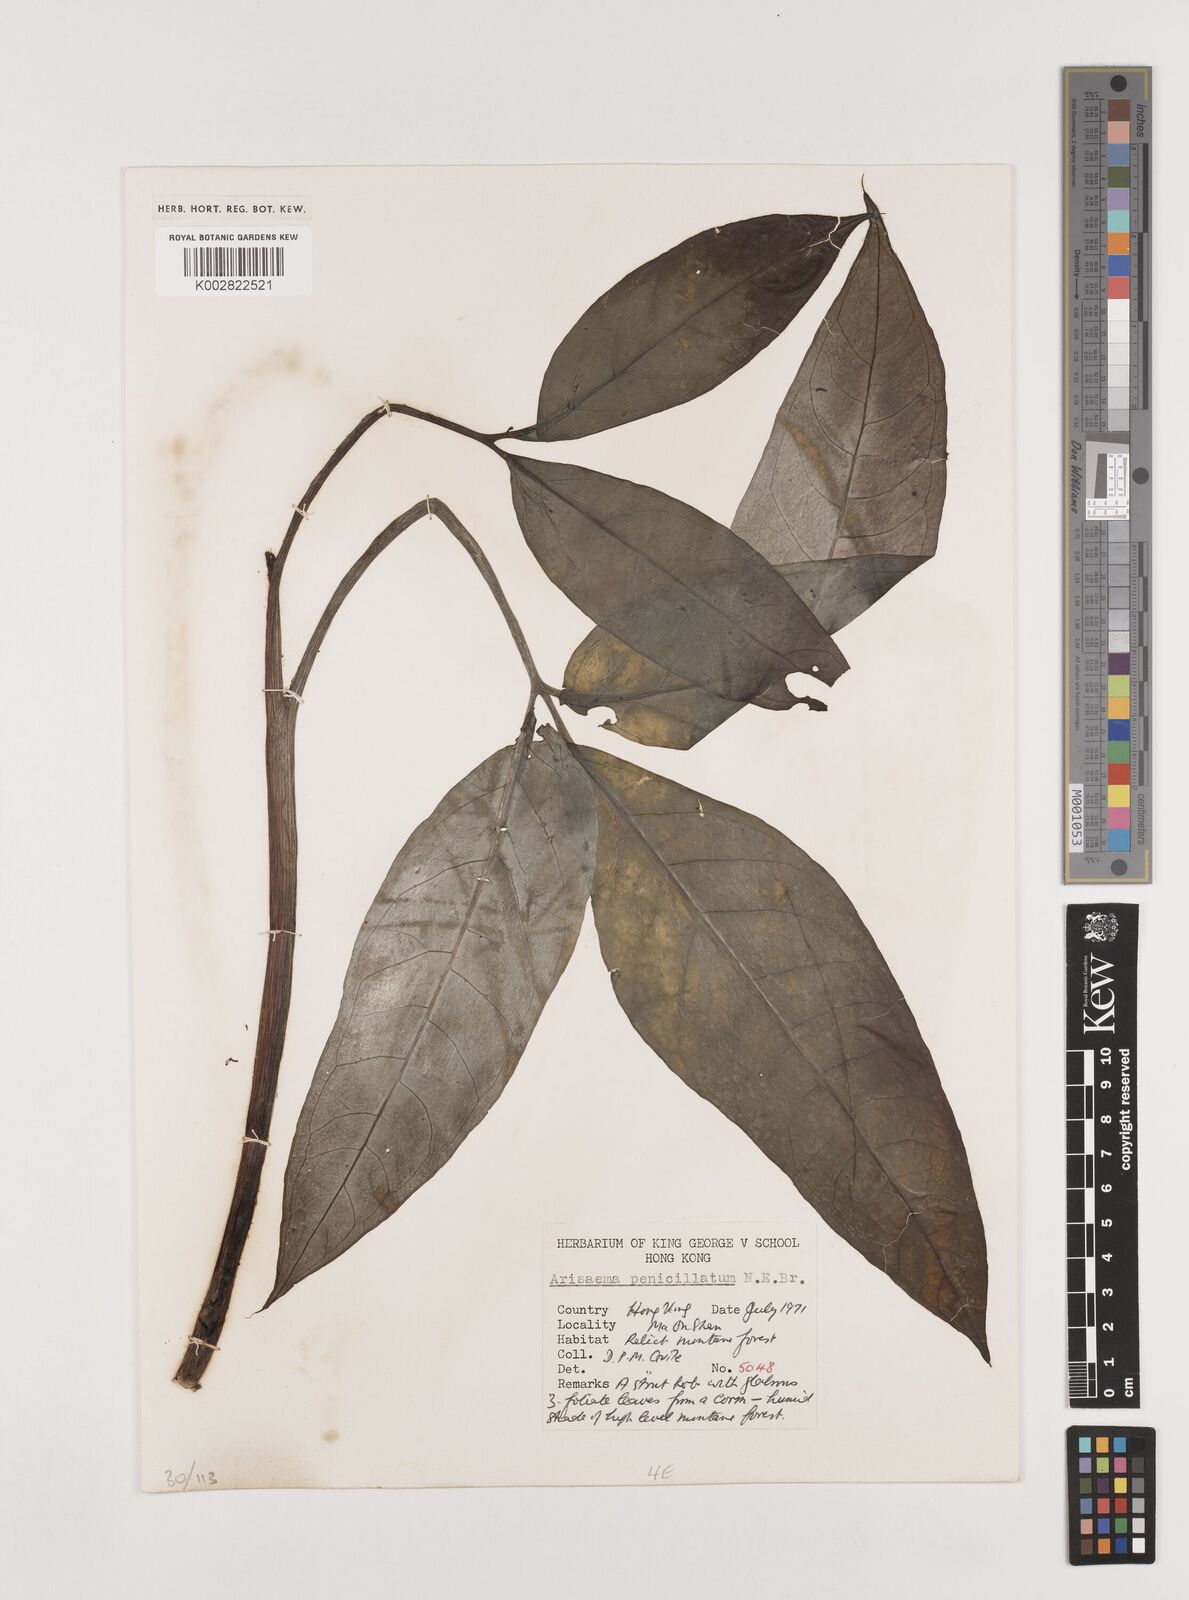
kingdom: Plantae
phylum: Tracheophyta
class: Liliopsida
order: Alismatales
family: Araceae
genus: Arisaema
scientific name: Arisaema penicillatum
